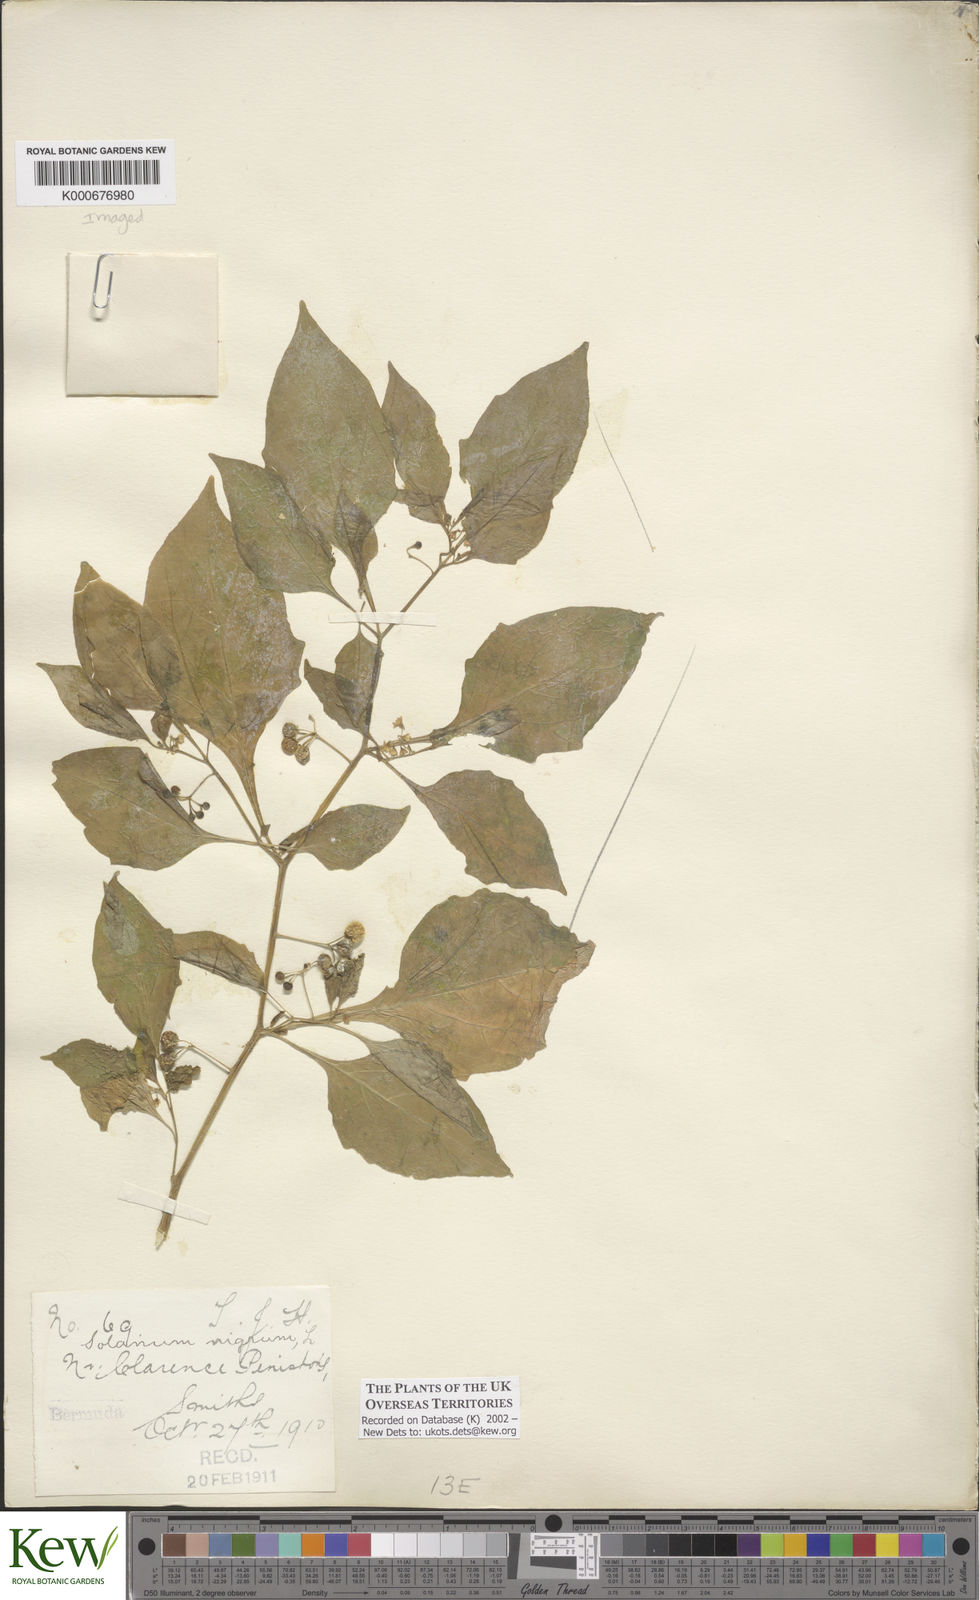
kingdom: Plantae
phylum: Tracheophyta
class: Magnoliopsida
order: Solanales
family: Solanaceae
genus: Solanum
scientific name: Solanum americanum
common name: American black nightshade
